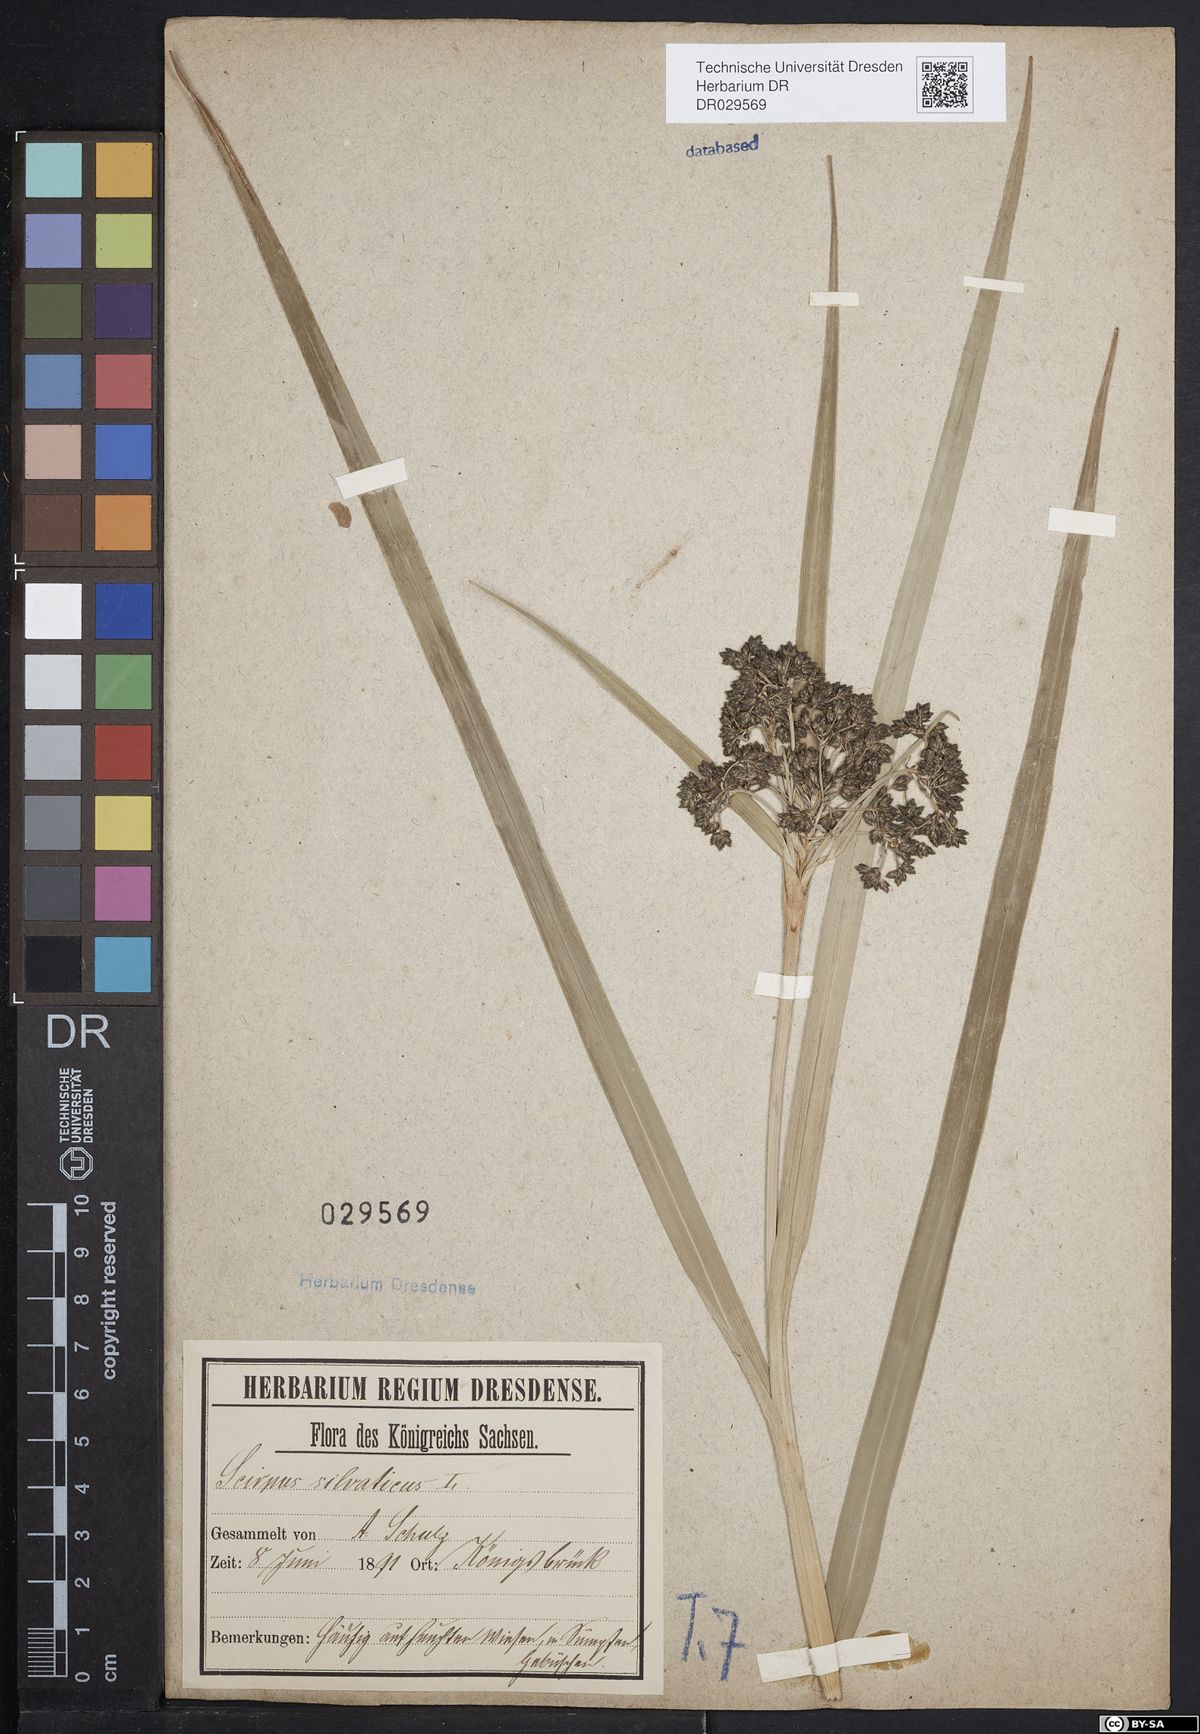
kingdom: Plantae
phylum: Tracheophyta
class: Liliopsida
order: Poales
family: Cyperaceae
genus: Scirpus
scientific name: Scirpus sylvaticus
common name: Wood club-rush
